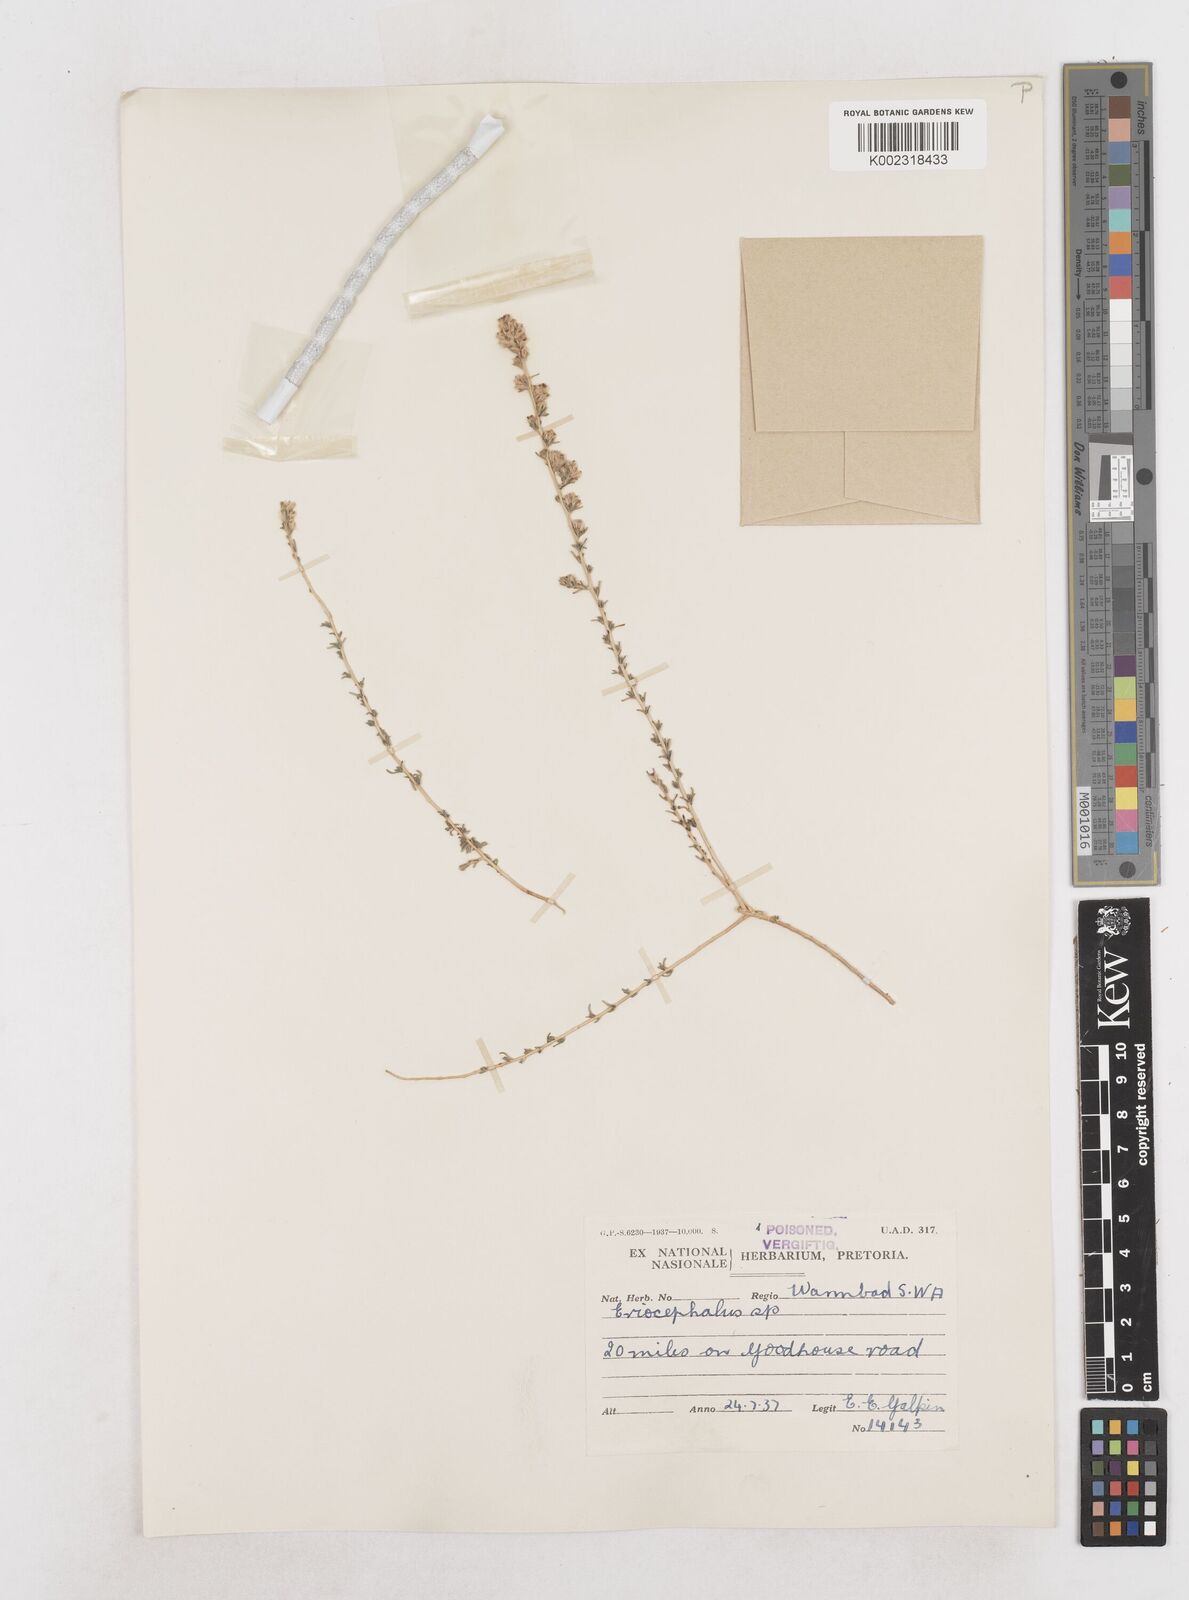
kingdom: Plantae
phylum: Tracheophyta
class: Magnoliopsida
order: Asterales
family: Asteraceae
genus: Eriocephalus
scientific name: Eriocephalus
